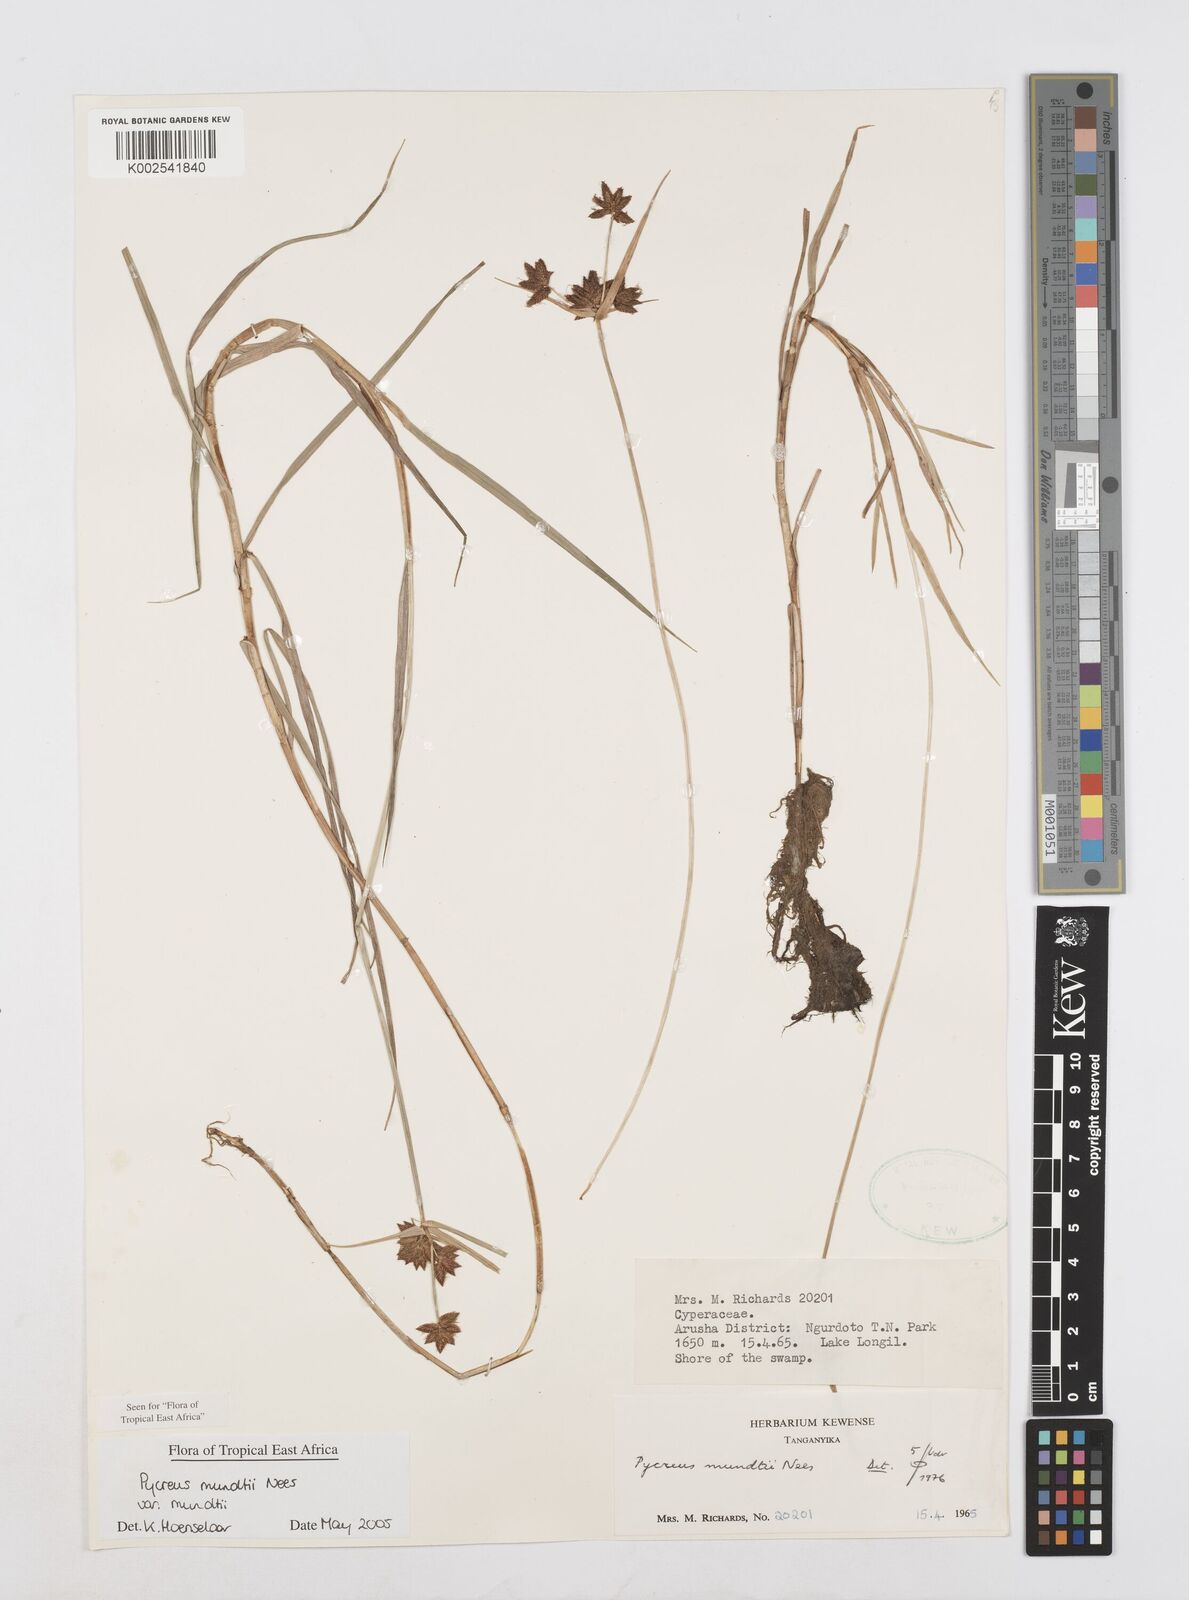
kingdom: Plantae
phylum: Tracheophyta
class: Liliopsida
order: Poales
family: Cyperaceae
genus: Cyperus
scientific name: Cyperus mundii
